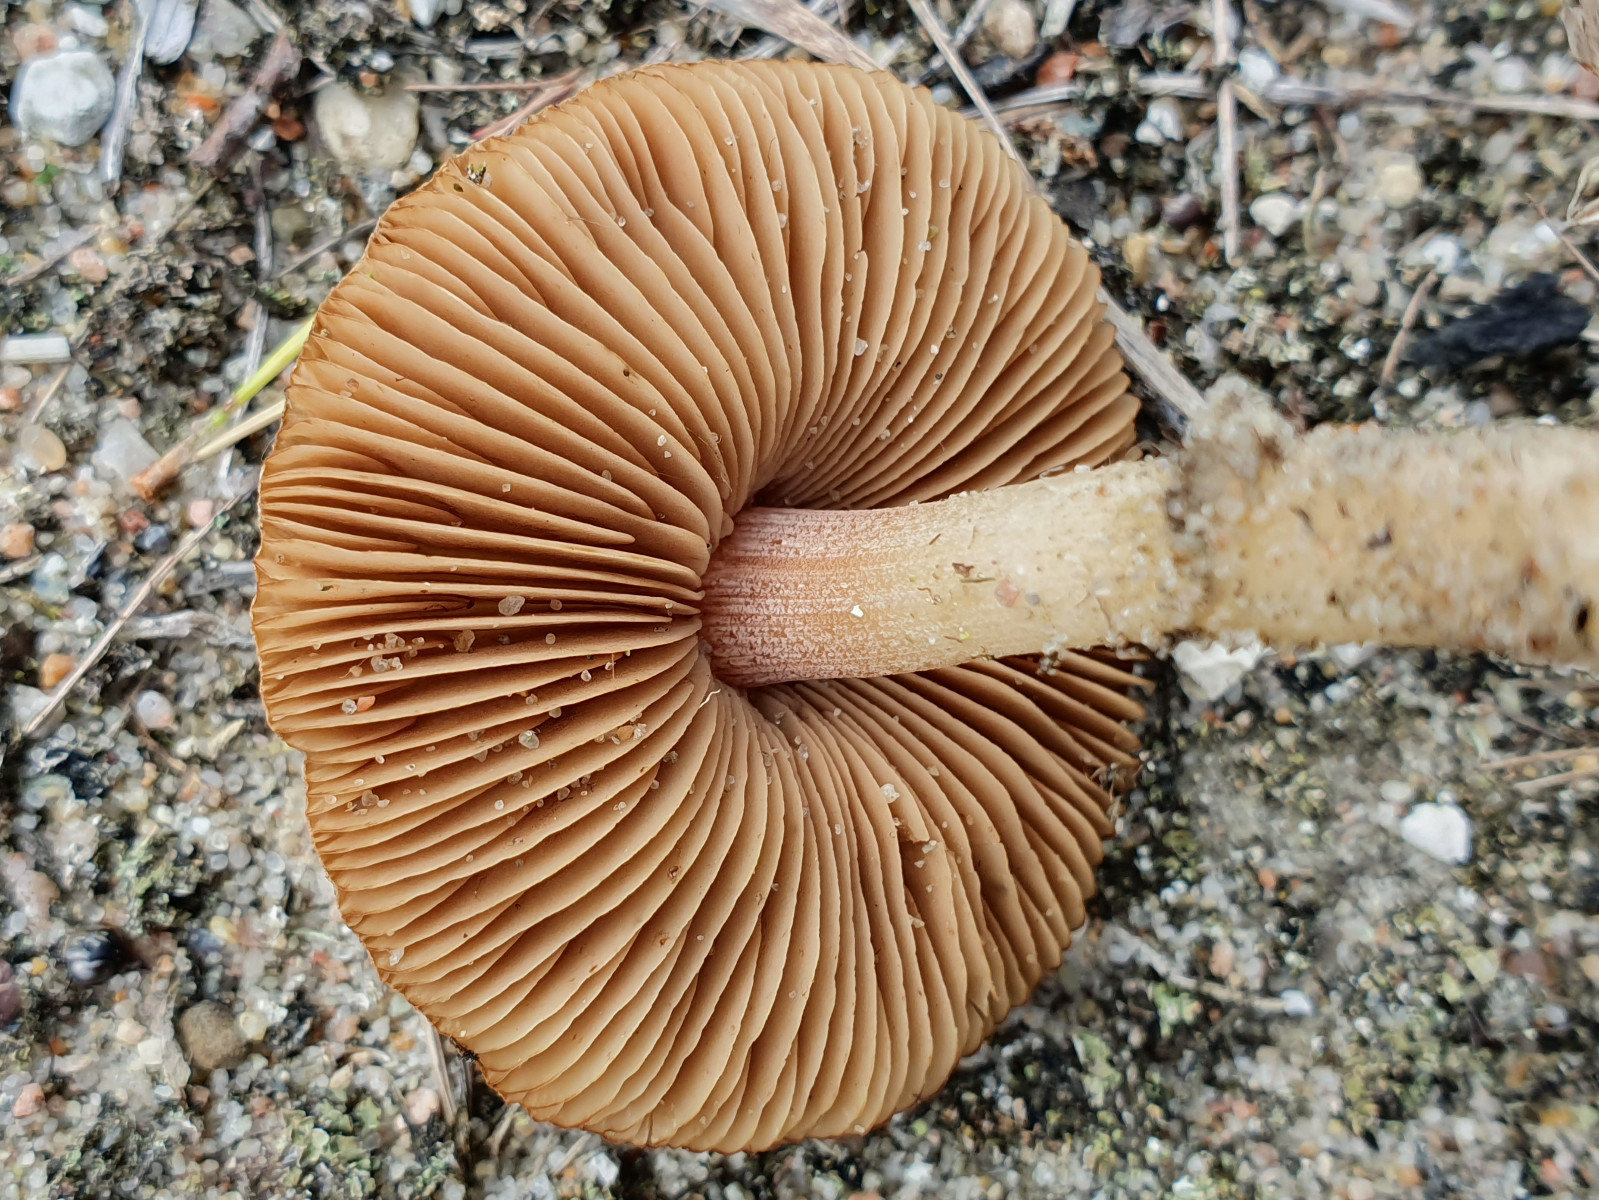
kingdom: Fungi
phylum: Basidiomycota
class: Agaricomycetes
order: Agaricales
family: Inocybaceae
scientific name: Inocybaceae
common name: trævlhatfamilien
